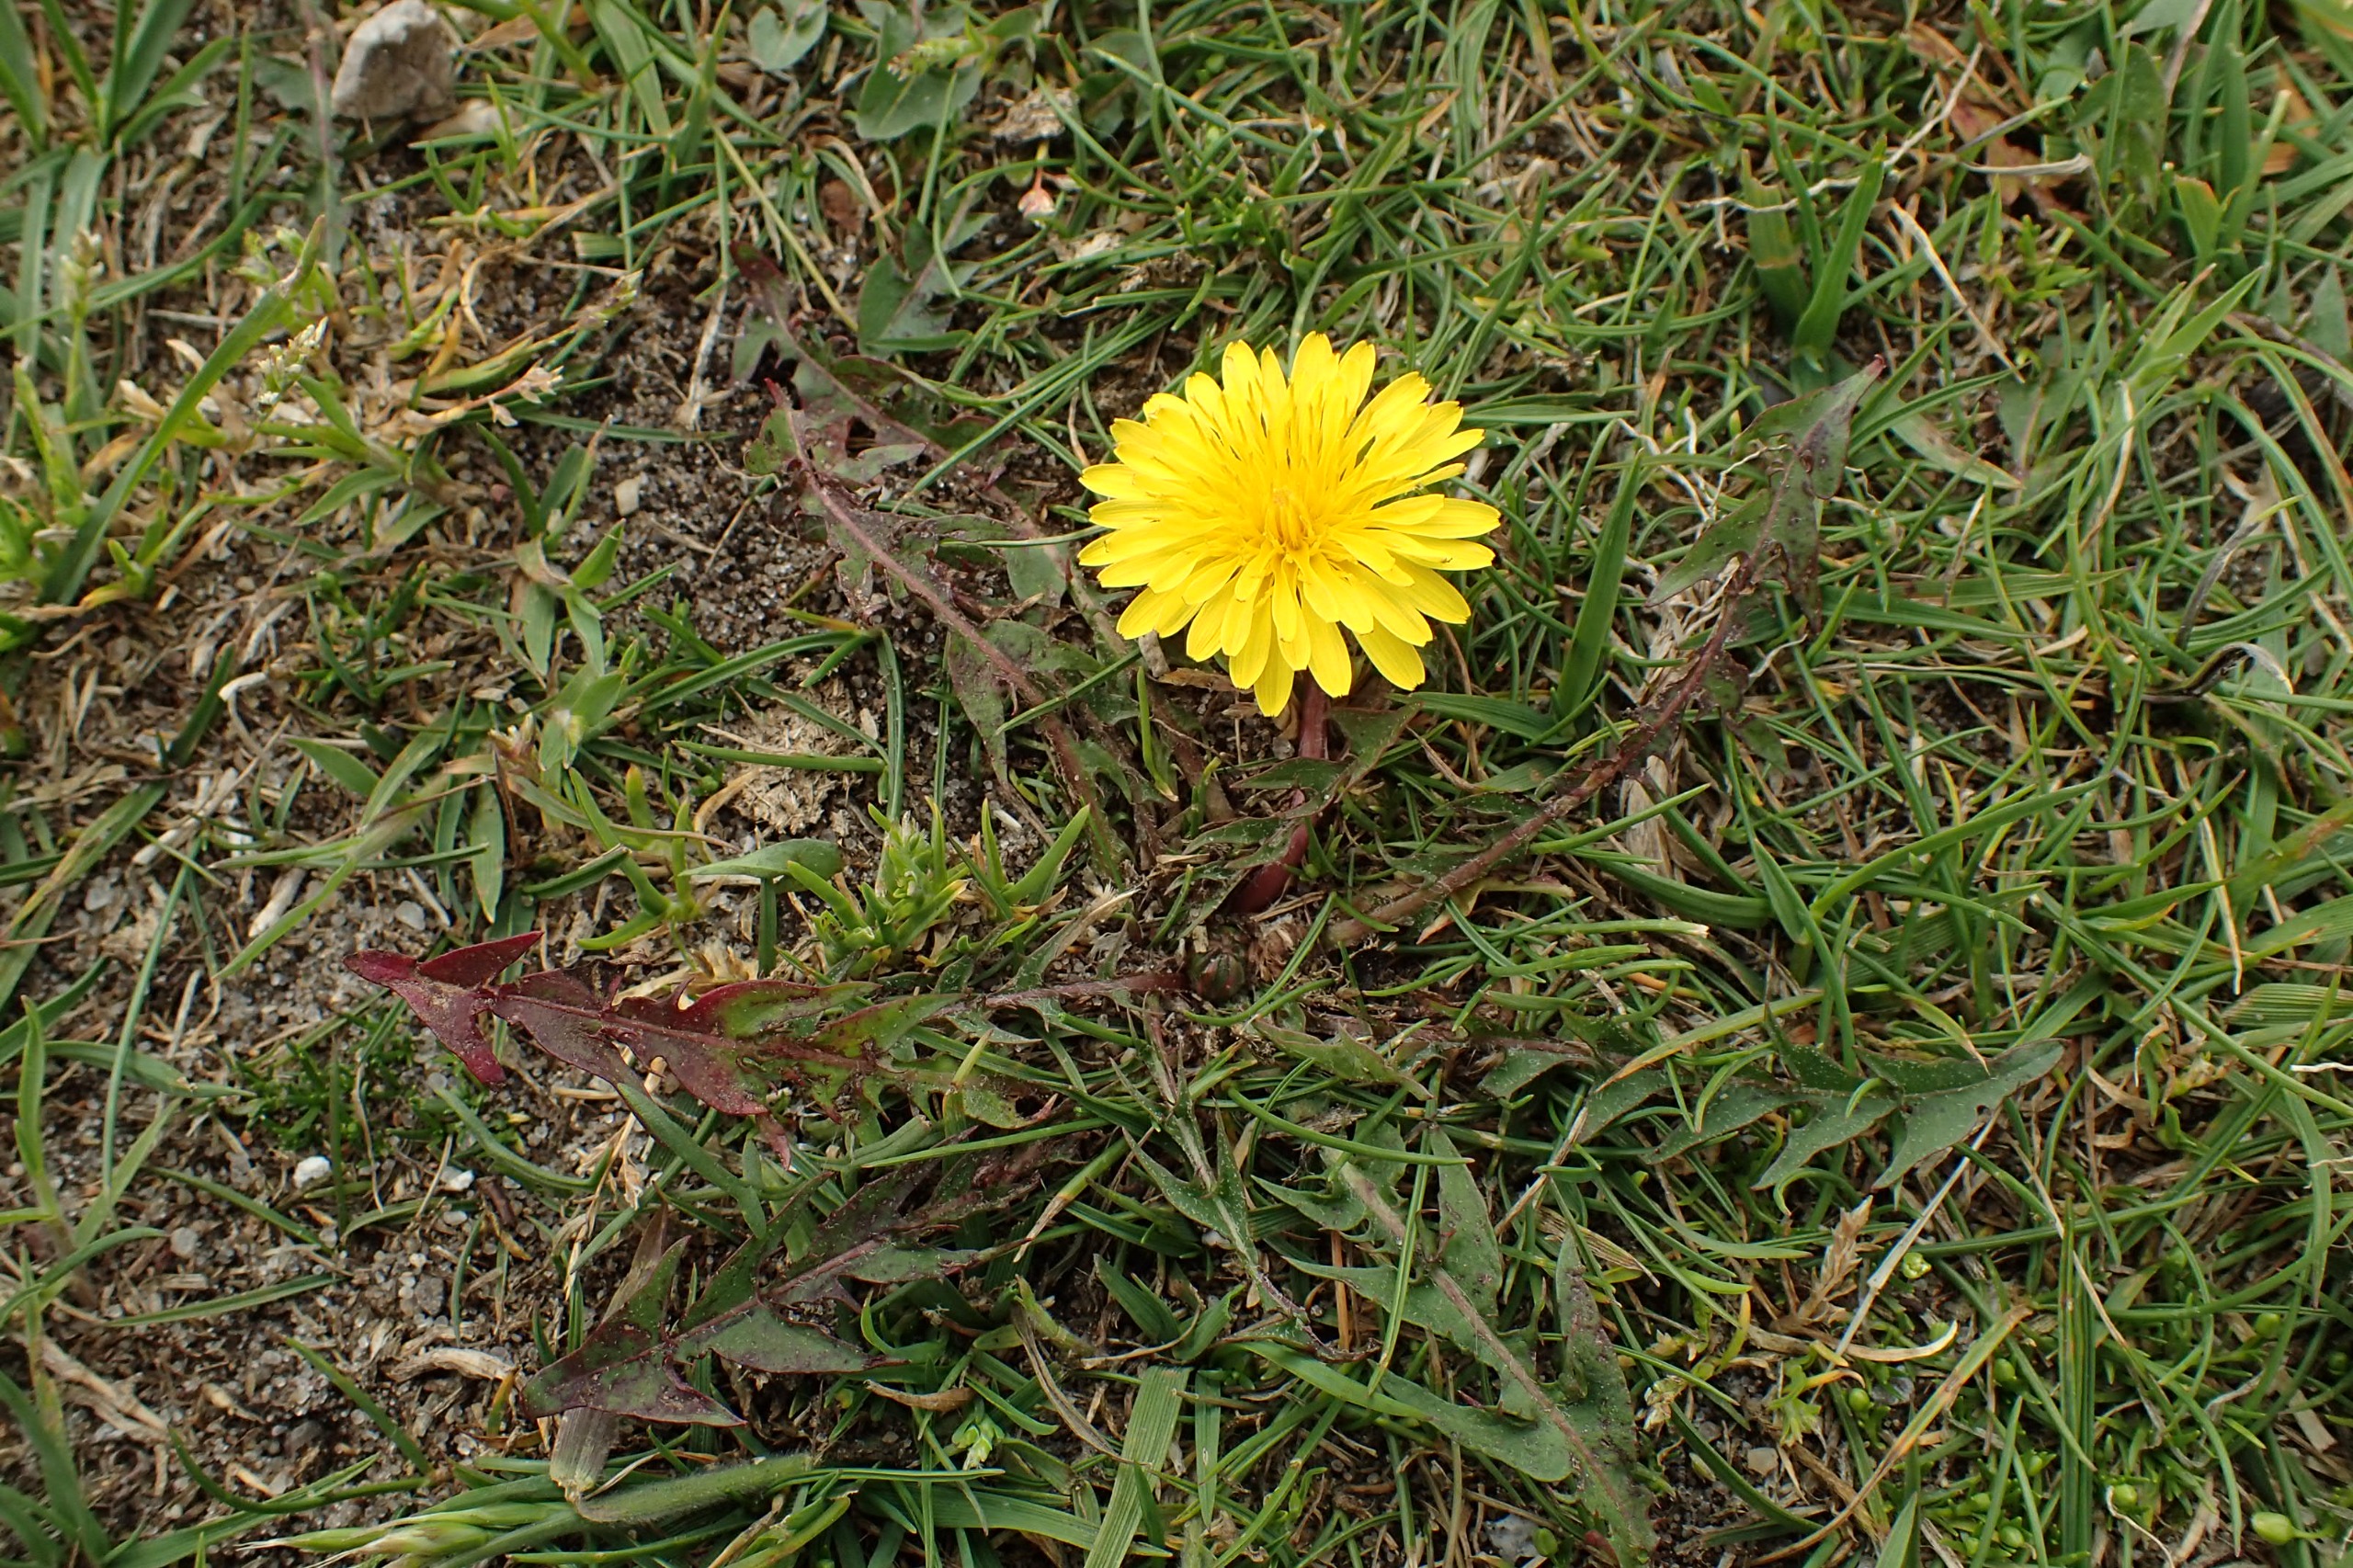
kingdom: Plantae
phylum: Tracheophyta
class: Magnoliopsida
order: Asterales
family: Asteraceae
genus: Taraxacum
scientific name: Taraxacum brachyglossum
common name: Mørk sandmælkebøtte
